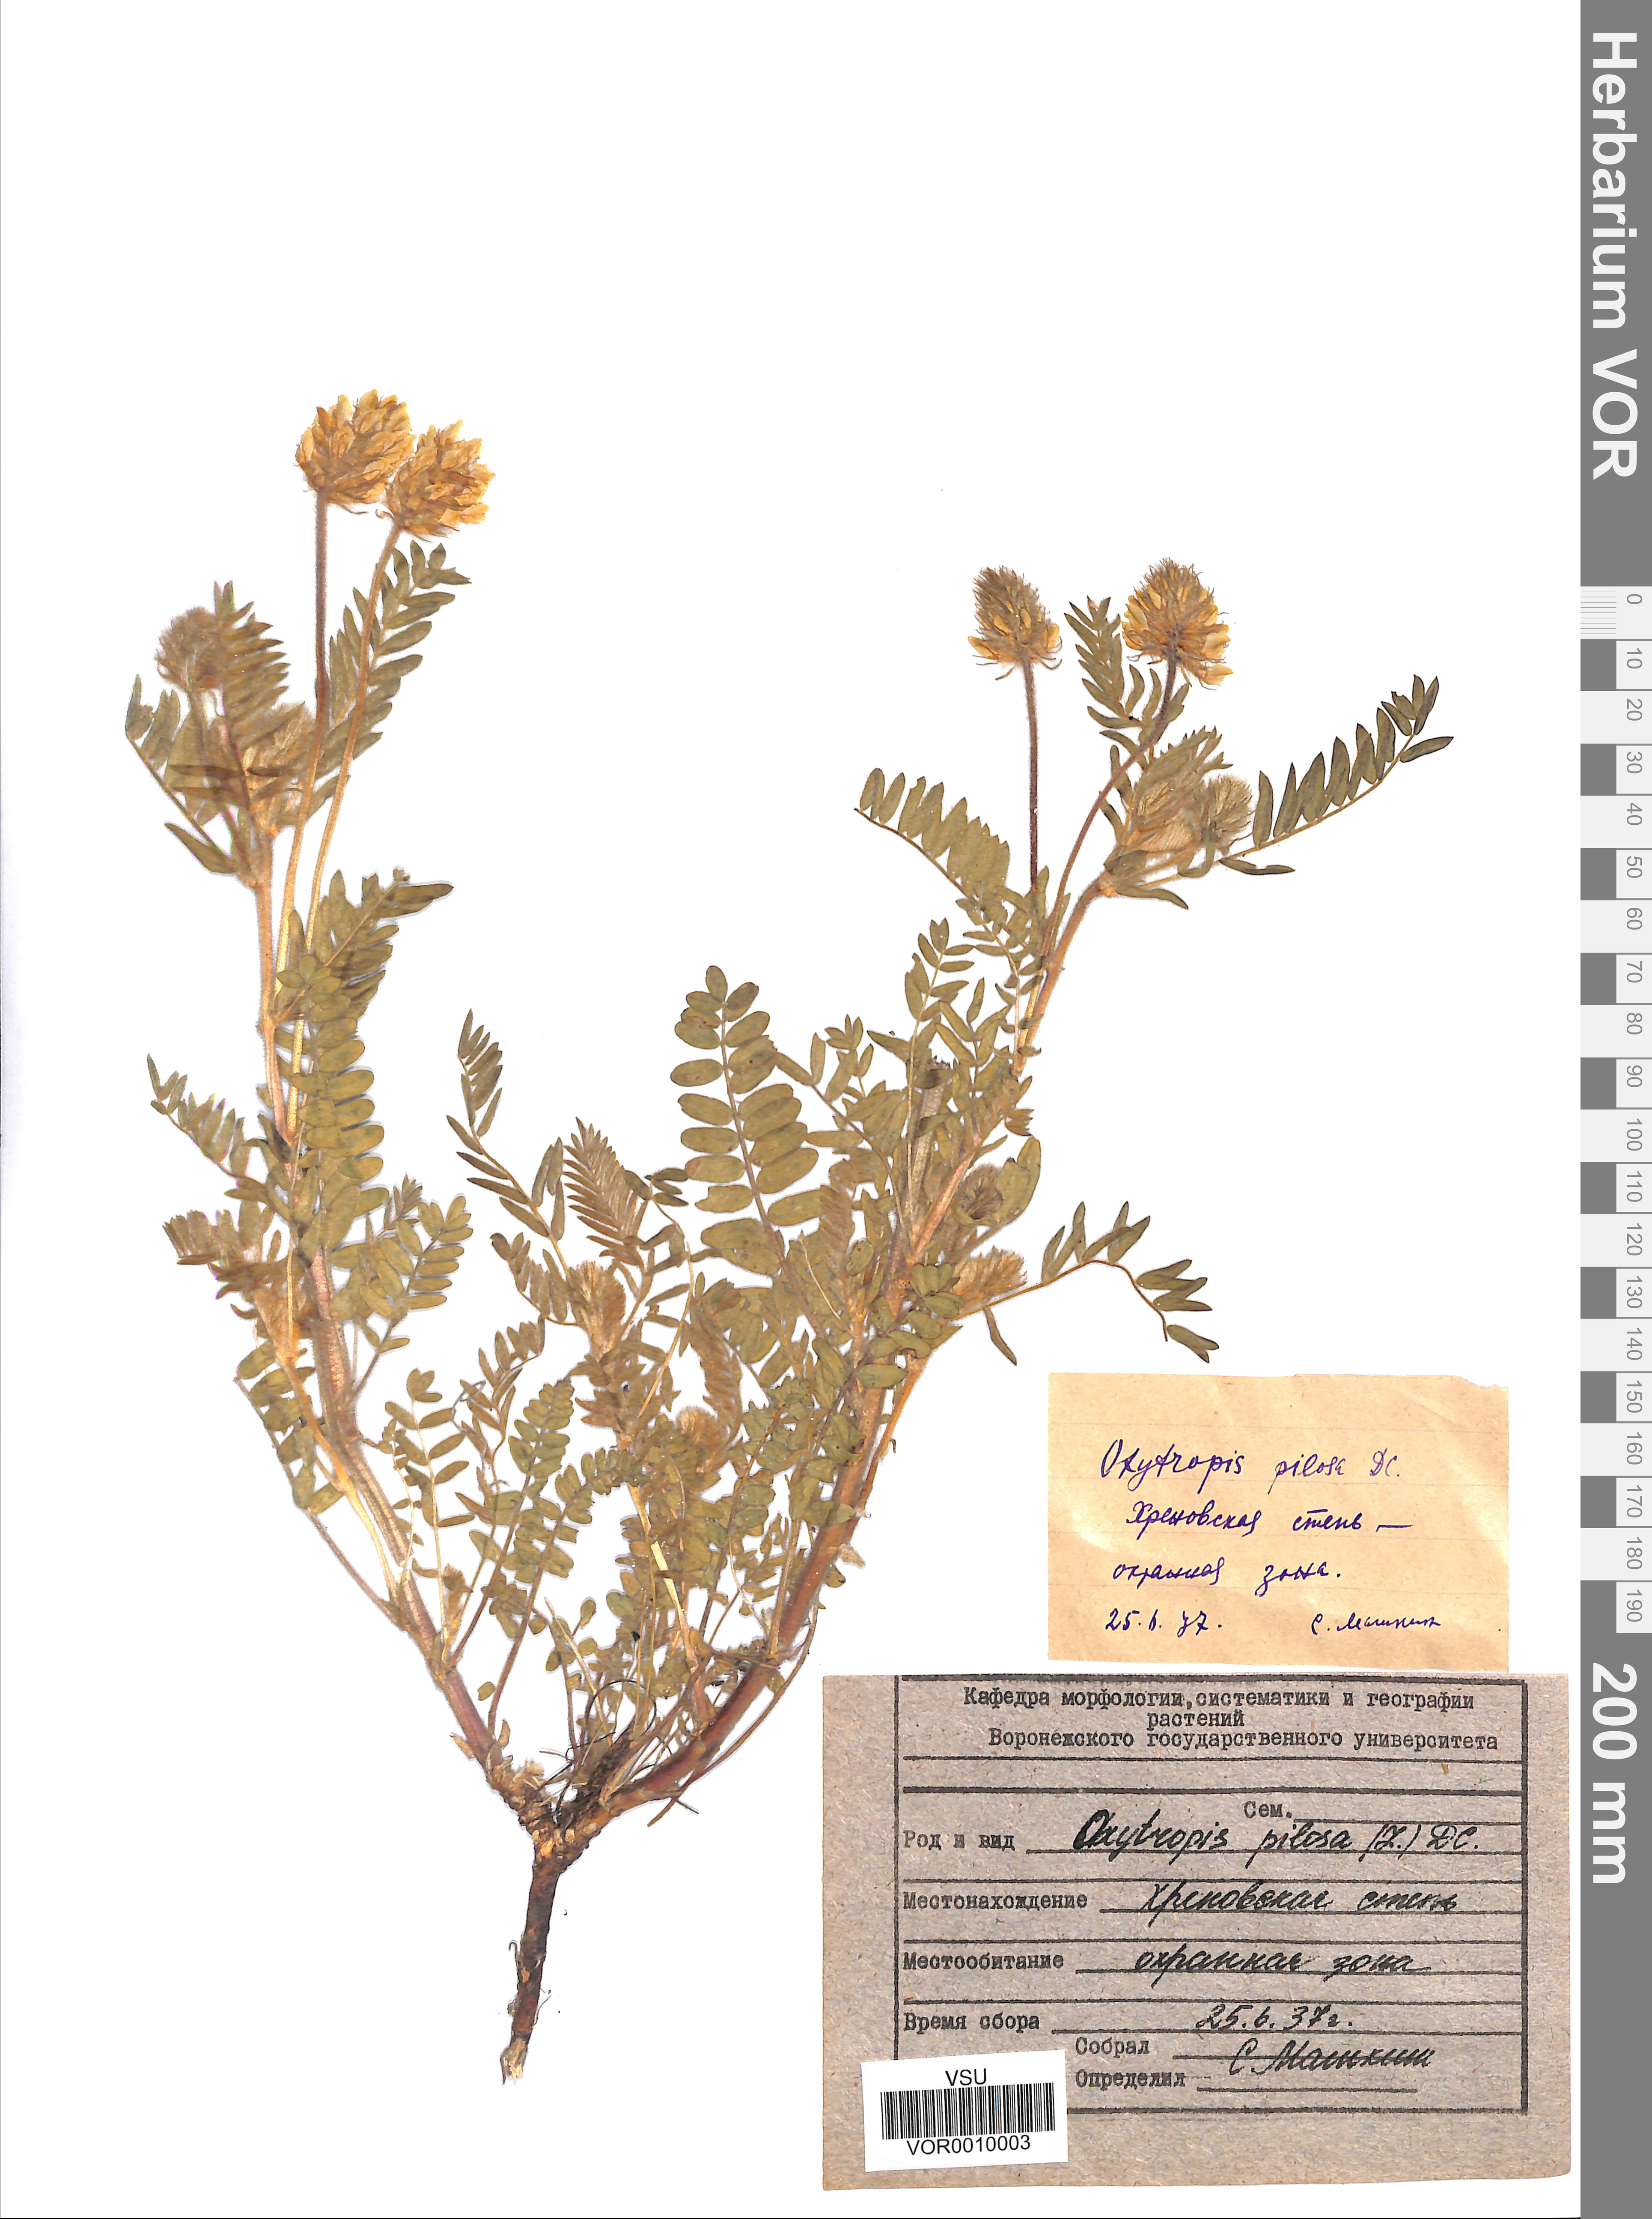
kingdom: Plantae
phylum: Tracheophyta
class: Magnoliopsida
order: Fabales
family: Fabaceae
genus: Oxytropis
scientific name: Oxytropis pilosa
